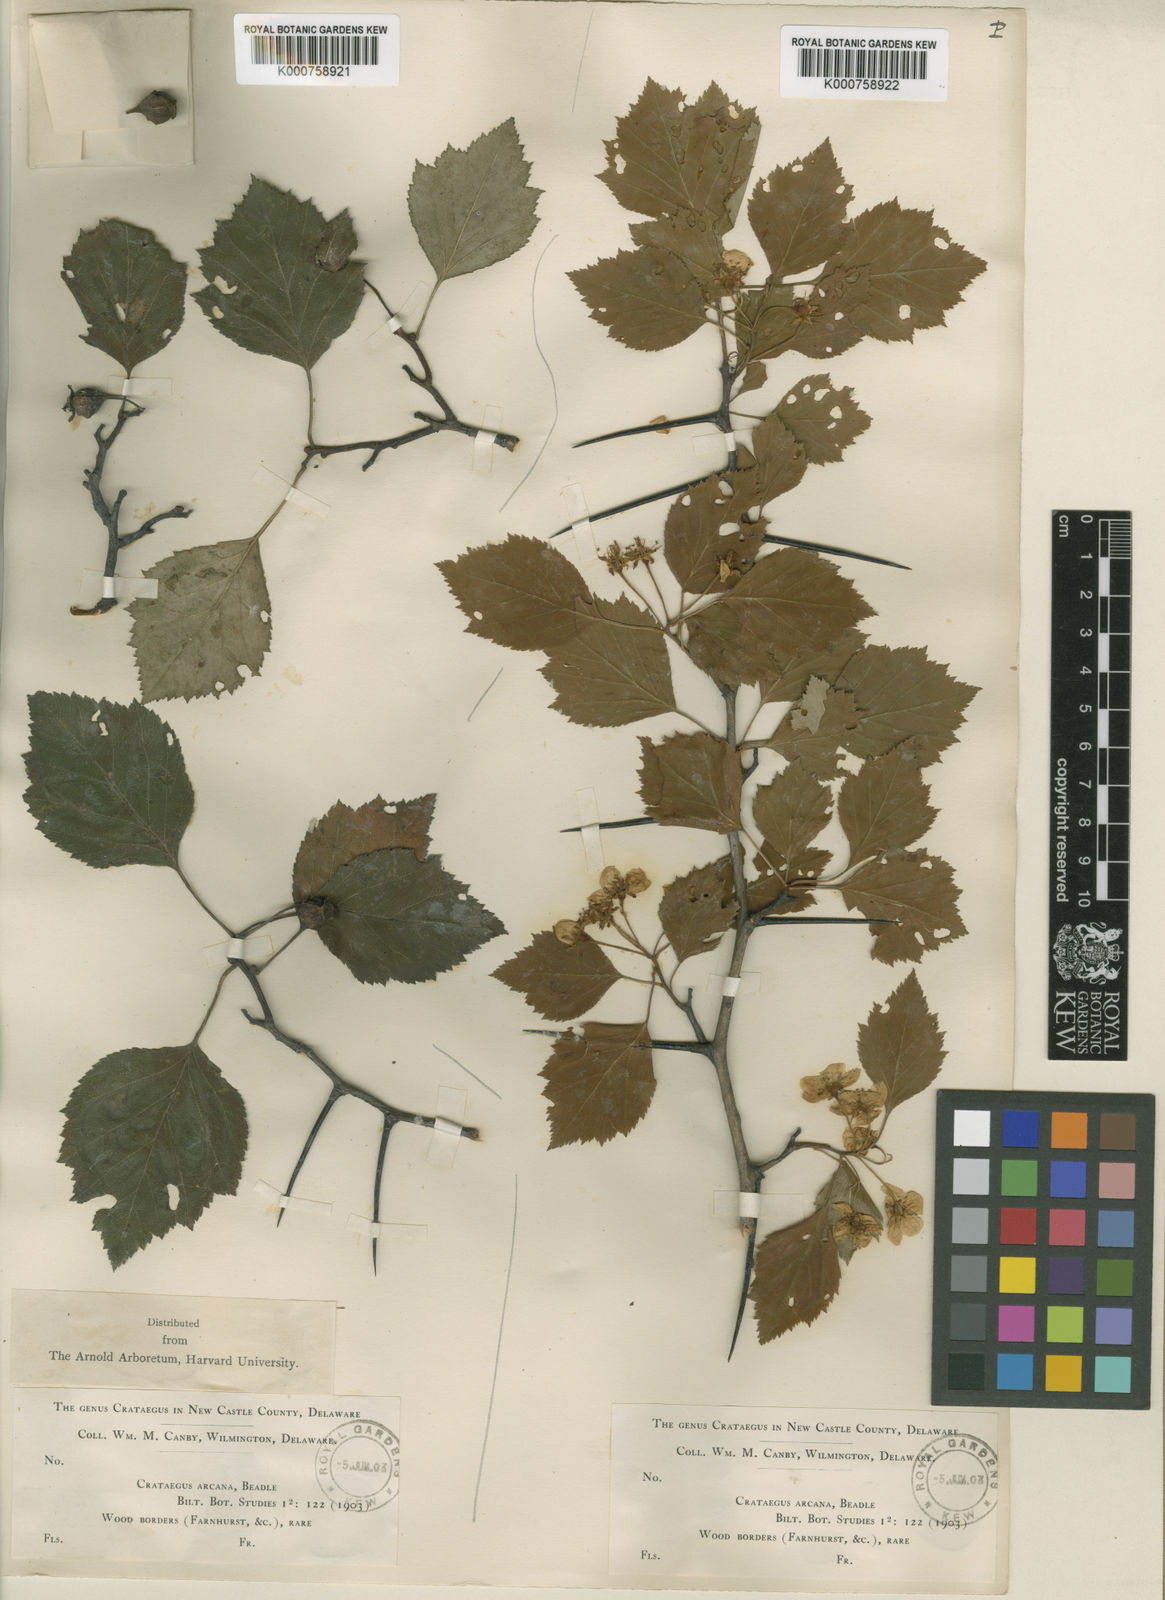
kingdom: Plantae
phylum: Tracheophyta
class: Magnoliopsida
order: Rosales
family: Rosaceae
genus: Crataegus
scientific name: Crataegus pruinosa
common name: Waxy-fruit hawthorn
